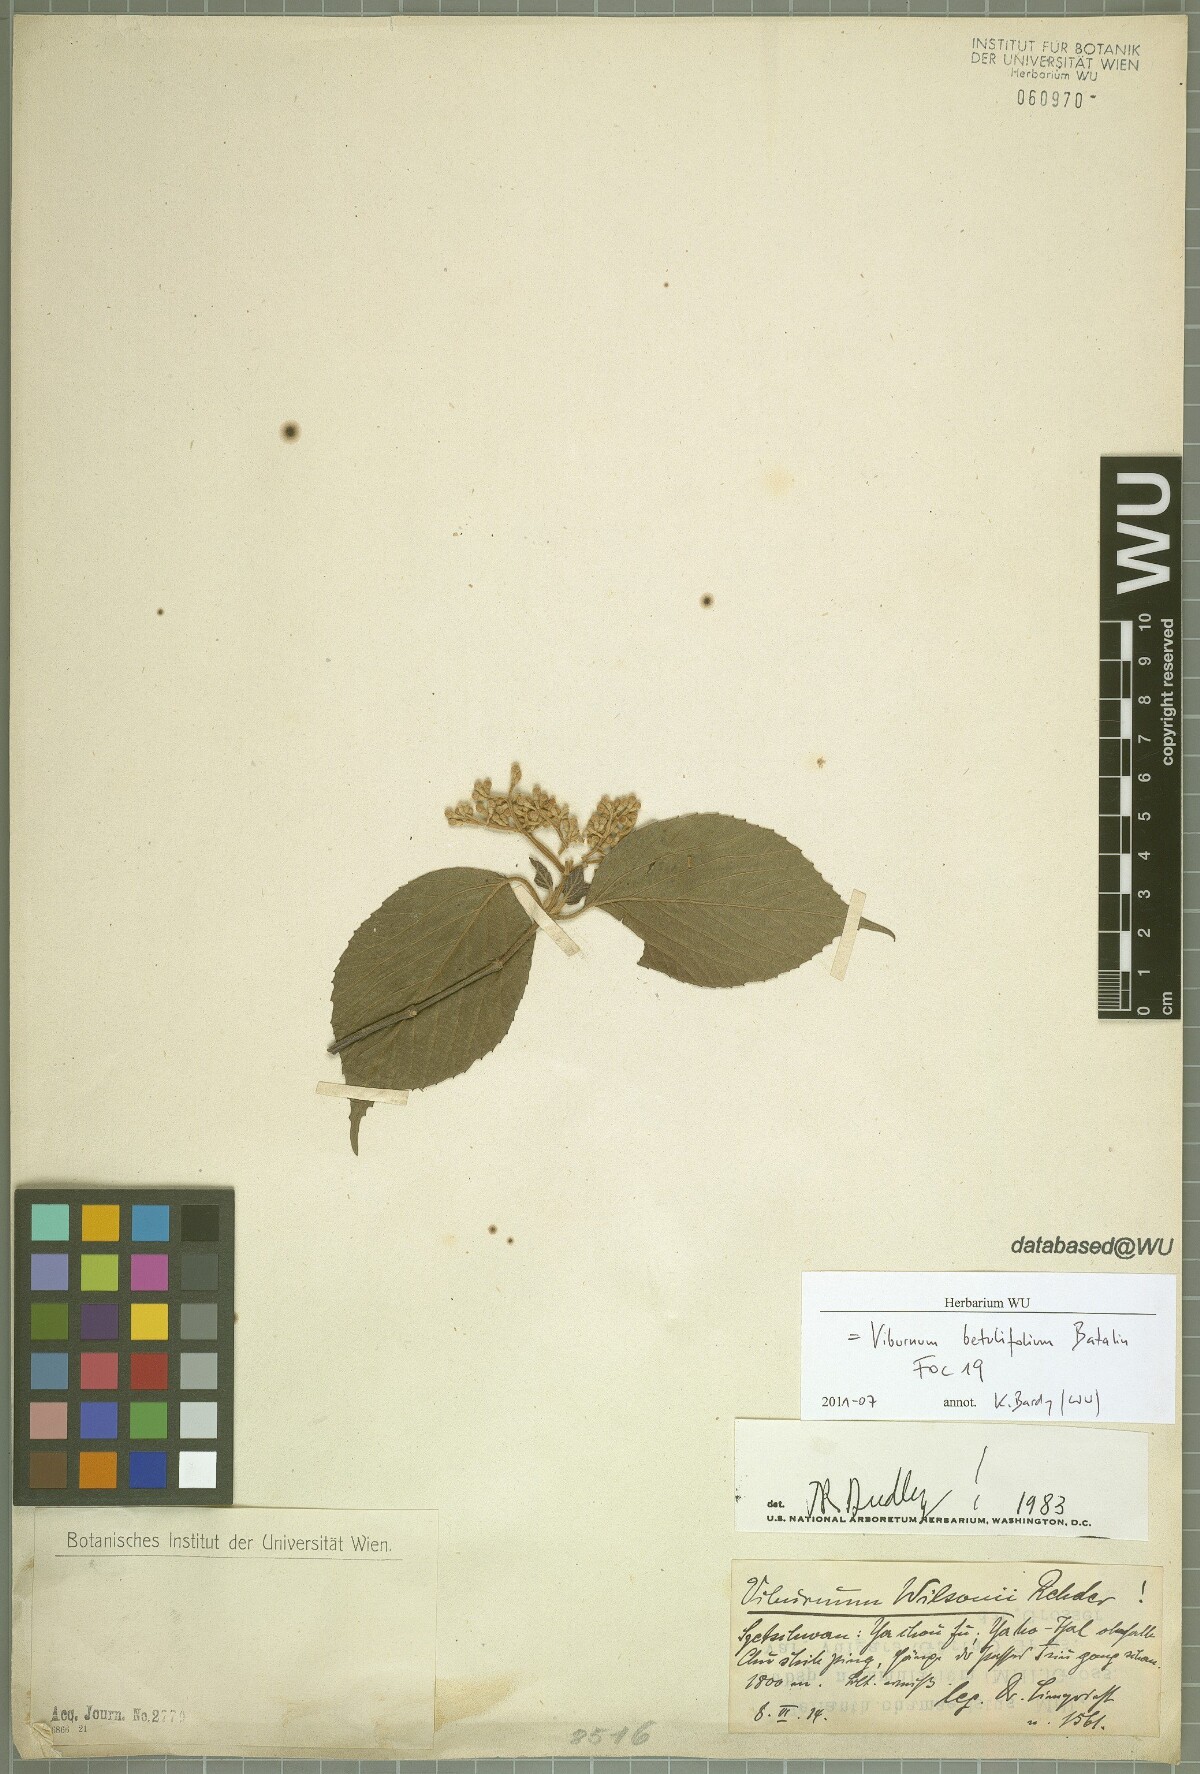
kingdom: Plantae
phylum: Tracheophyta
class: Magnoliopsida
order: Dipsacales
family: Viburnaceae
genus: Viburnum
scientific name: Viburnum betulifolium
